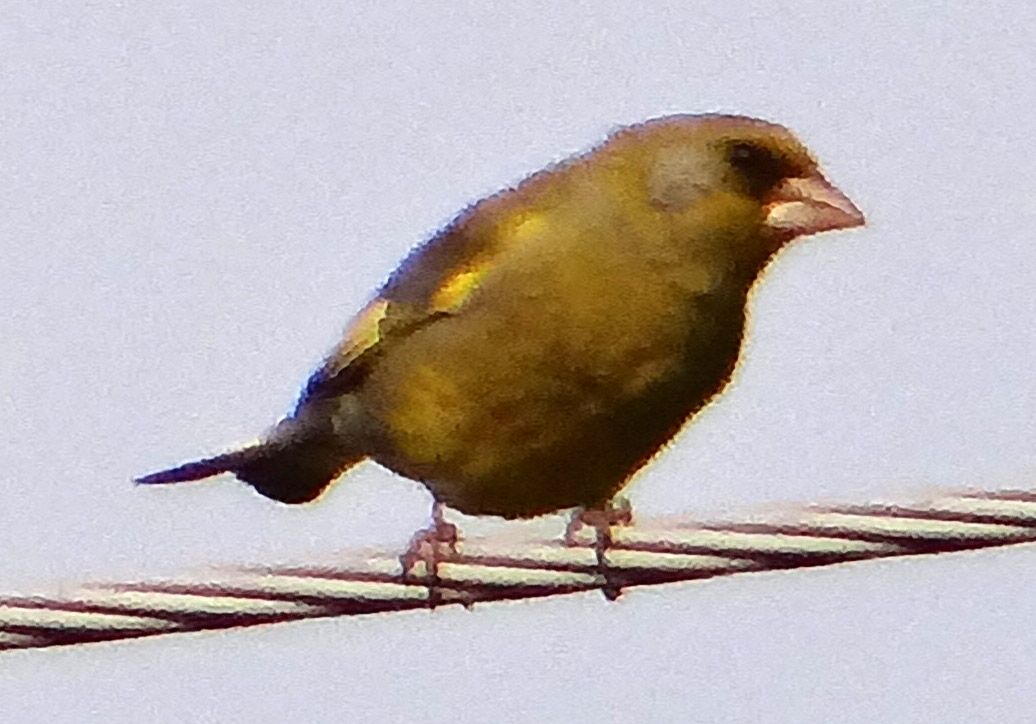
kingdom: Plantae
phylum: Tracheophyta
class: Liliopsida
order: Poales
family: Poaceae
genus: Chloris
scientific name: Chloris chloris
